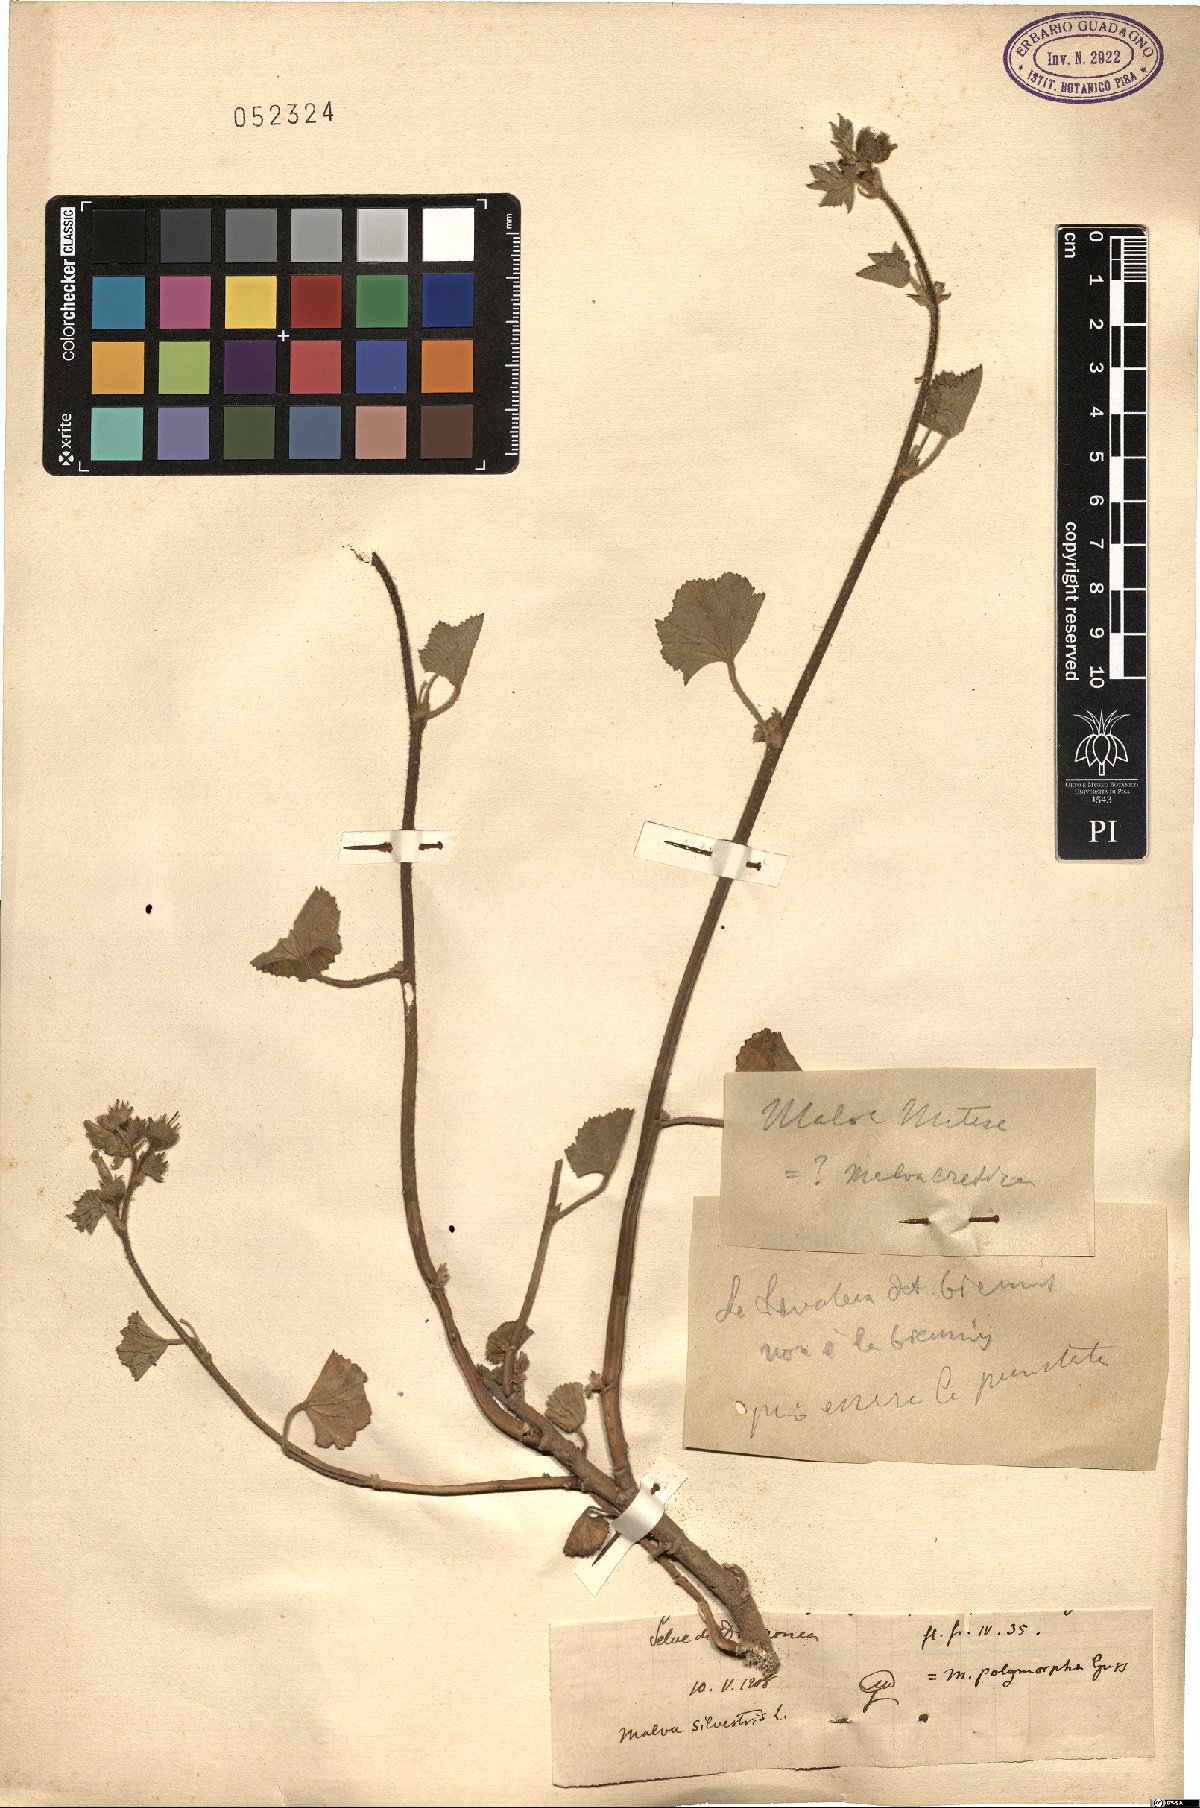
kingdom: Plantae
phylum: Tracheophyta
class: Magnoliopsida
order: Malvales
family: Malvaceae
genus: Malva
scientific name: Malva sylvestris
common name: Common mallow
